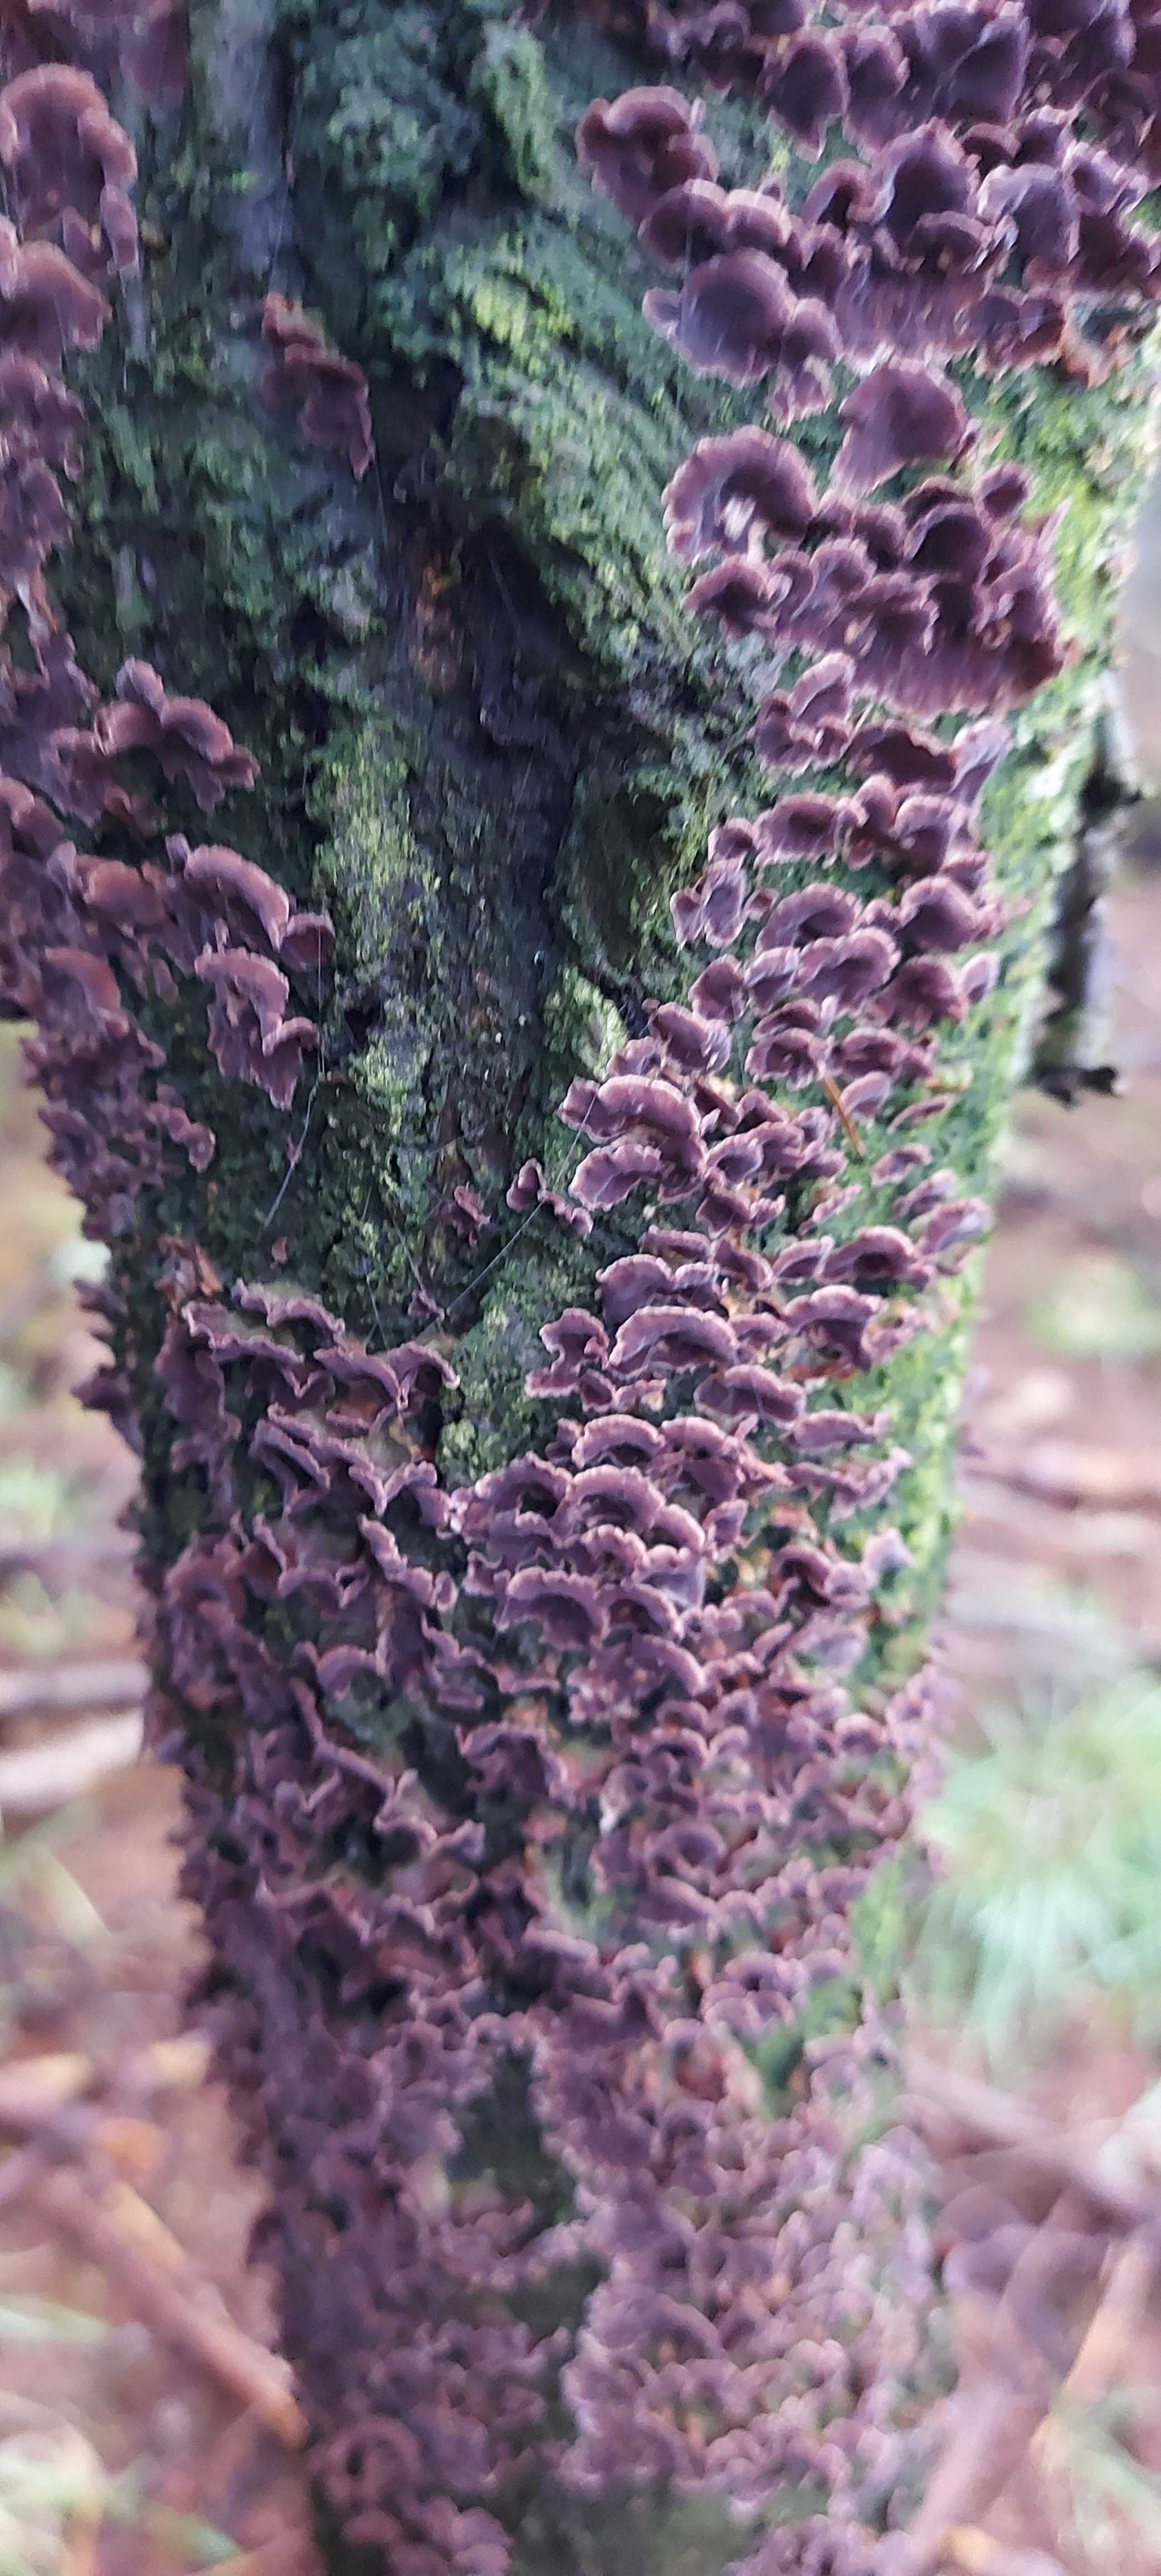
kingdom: Fungi
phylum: Basidiomycota
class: Agaricomycetes
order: Agaricales
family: Cyphellaceae
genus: Chondrostereum
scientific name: Chondrostereum purpureum
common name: purpurlædersvamp
